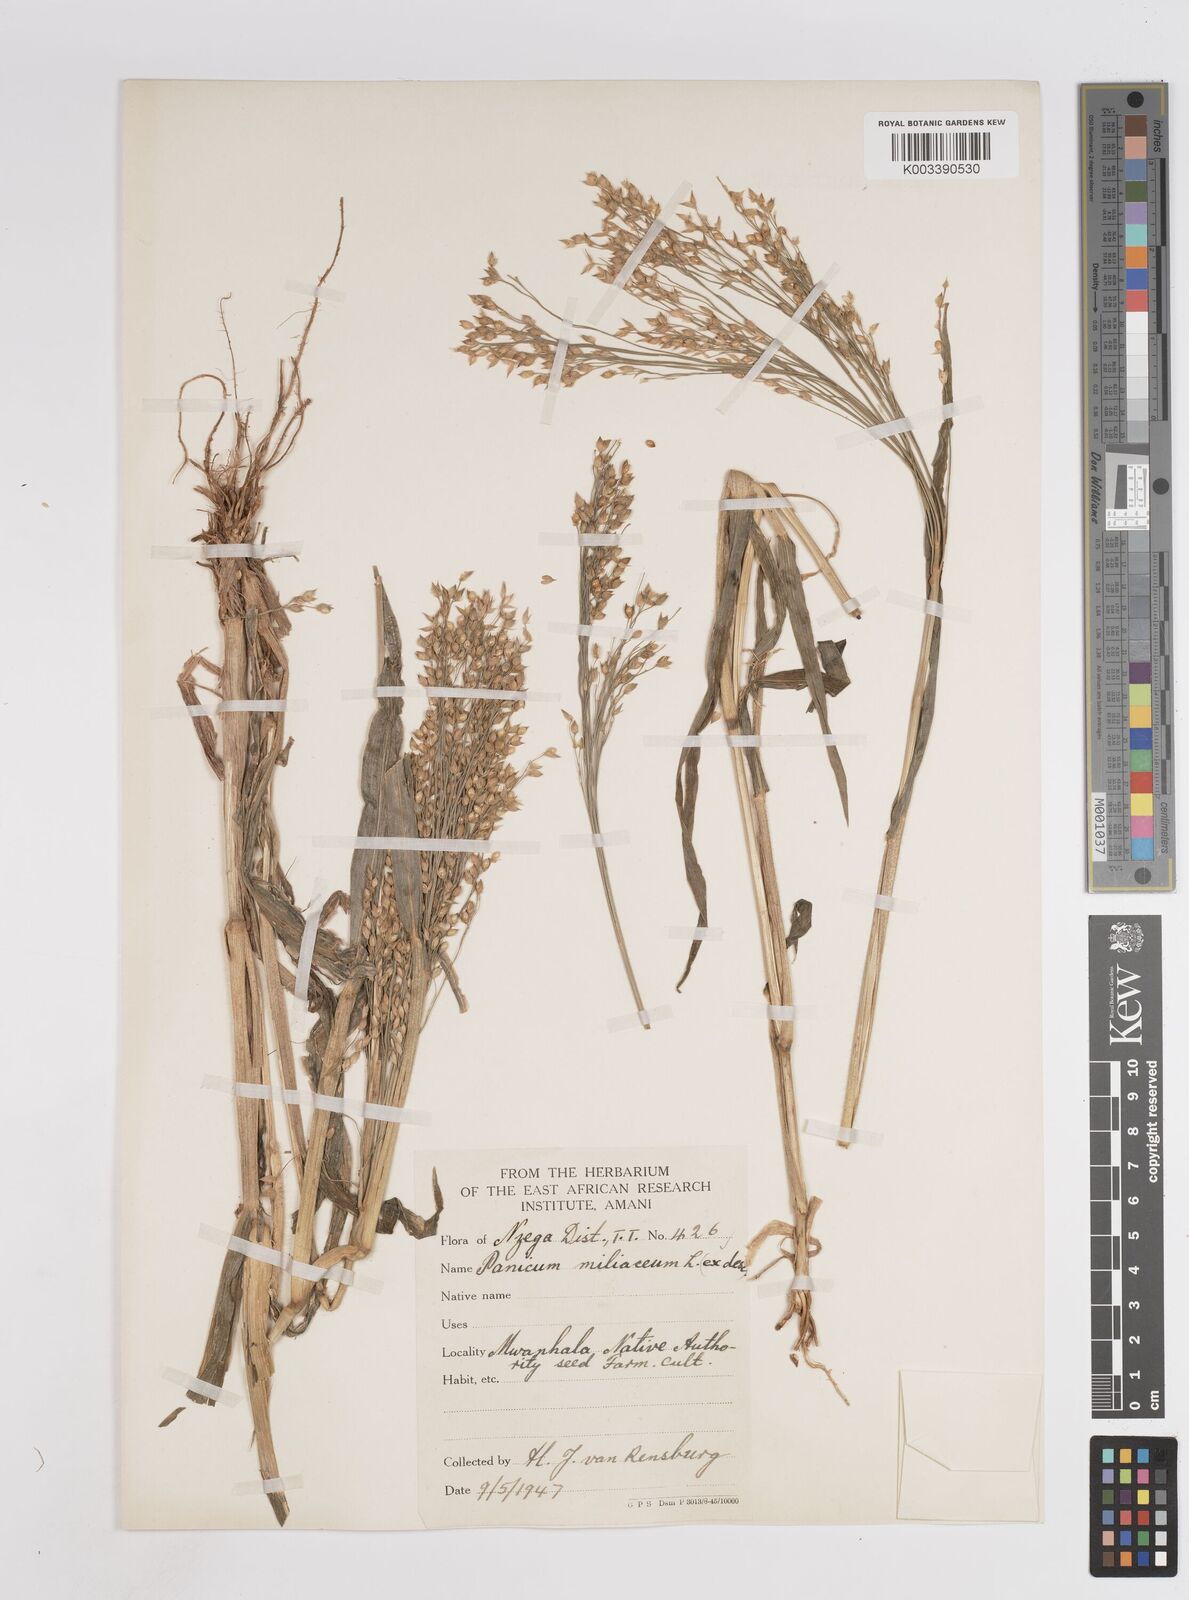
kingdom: Plantae
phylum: Tracheophyta
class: Liliopsida
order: Poales
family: Poaceae
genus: Panicum
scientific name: Panicum miliaceum
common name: Common millet
